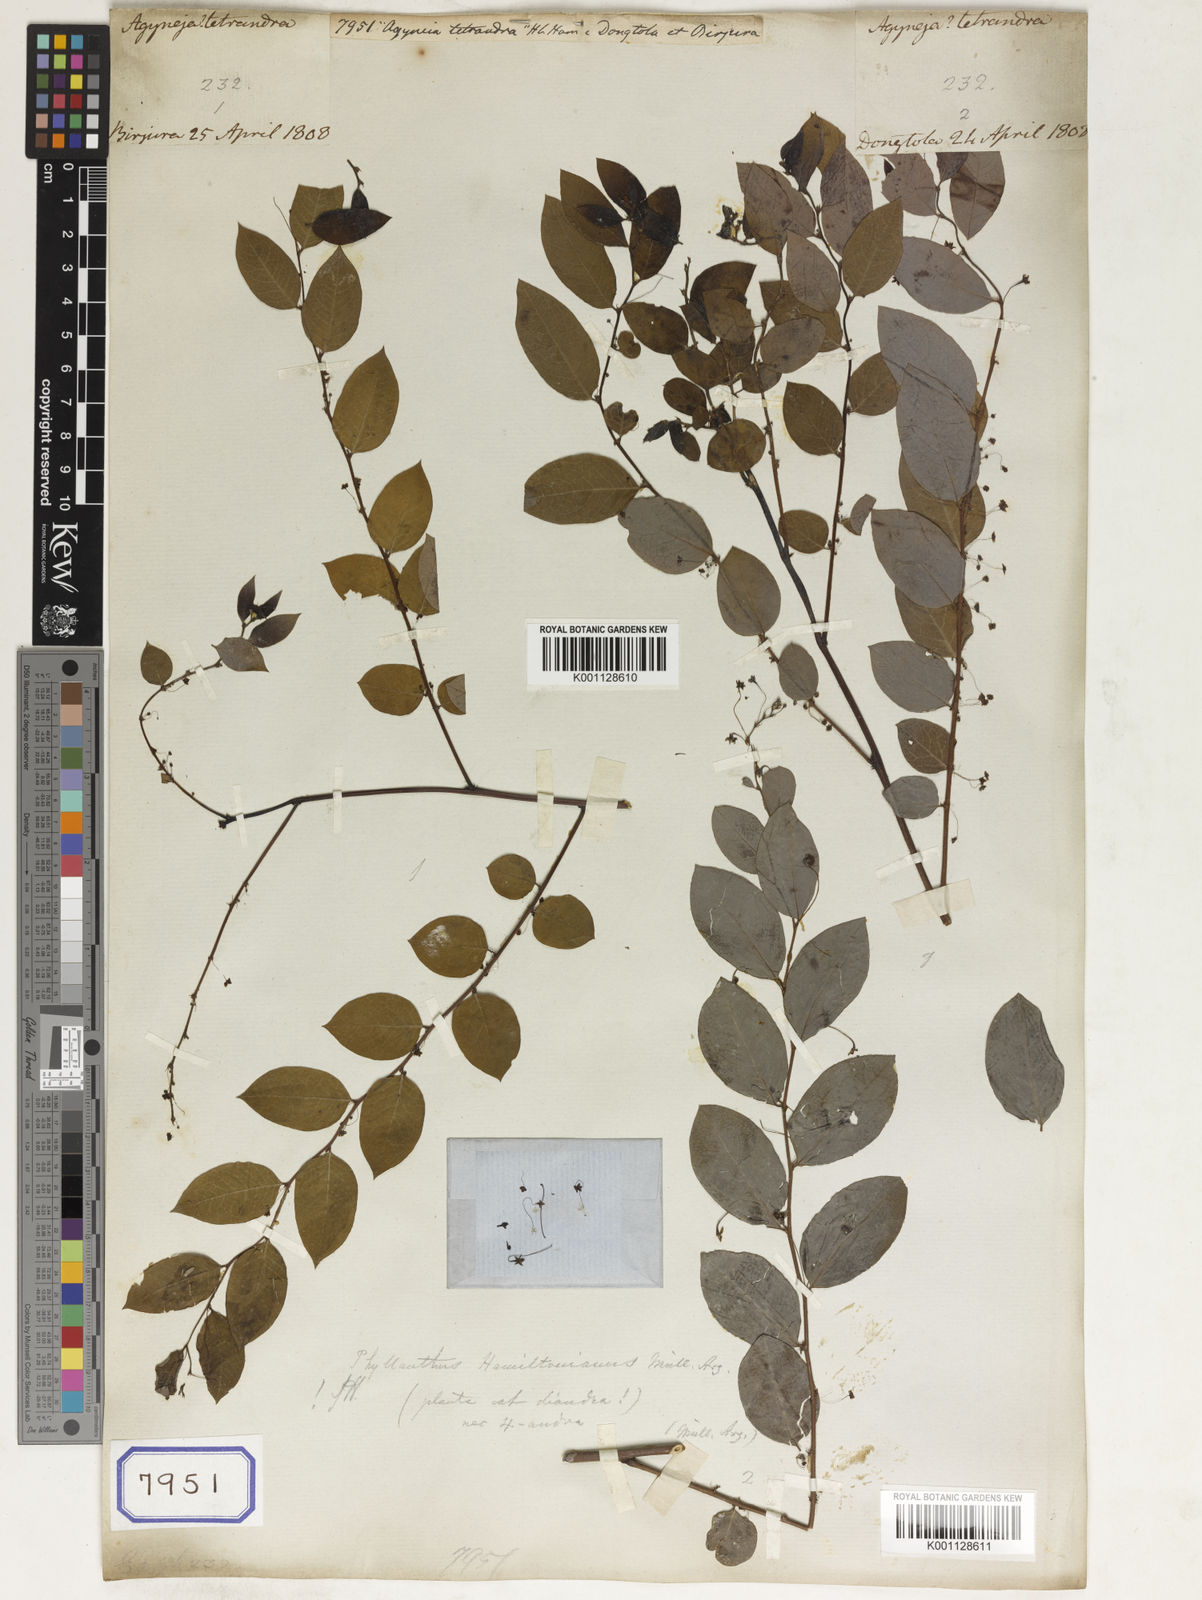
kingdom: Plantae
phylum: Tracheophyta
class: Magnoliopsida
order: Malpighiales
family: Euphorbiaceae
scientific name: Euphorbiaceae
